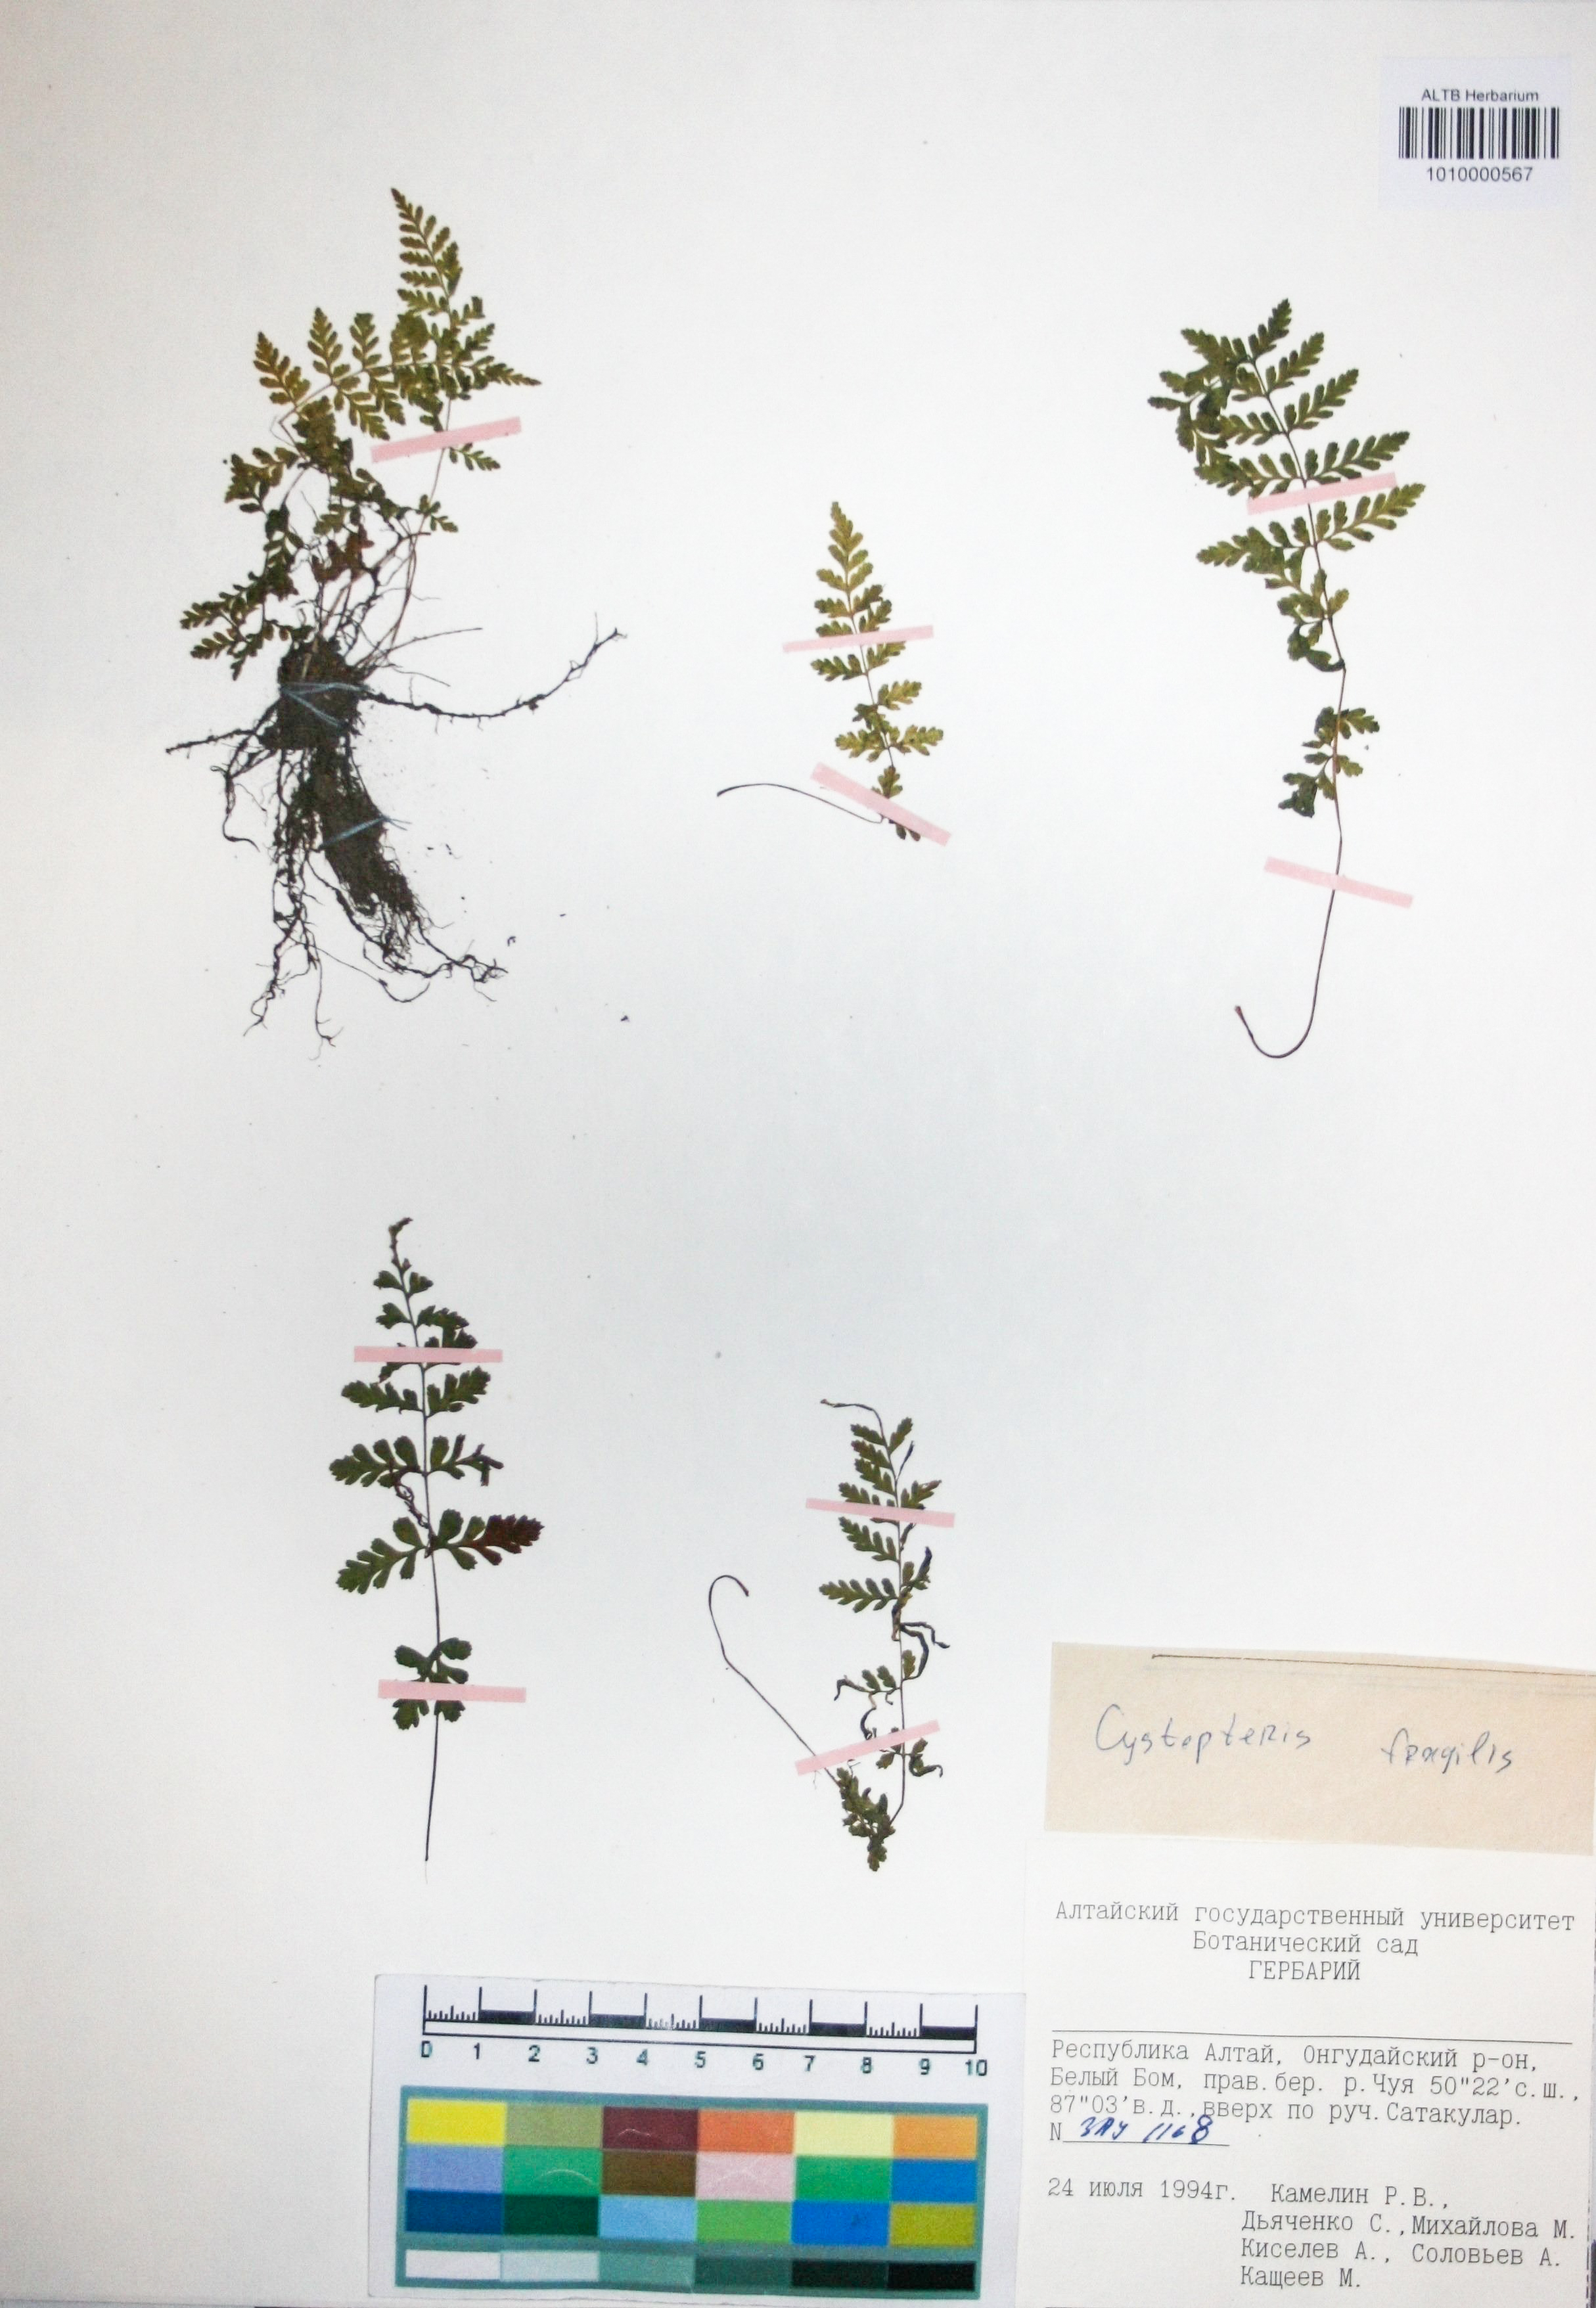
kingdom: Plantae
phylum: Tracheophyta
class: Polypodiopsida
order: Polypodiales
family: Cystopteridaceae
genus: Cystopteris
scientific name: Cystopteris fragilis
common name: Brittle bladder fern
